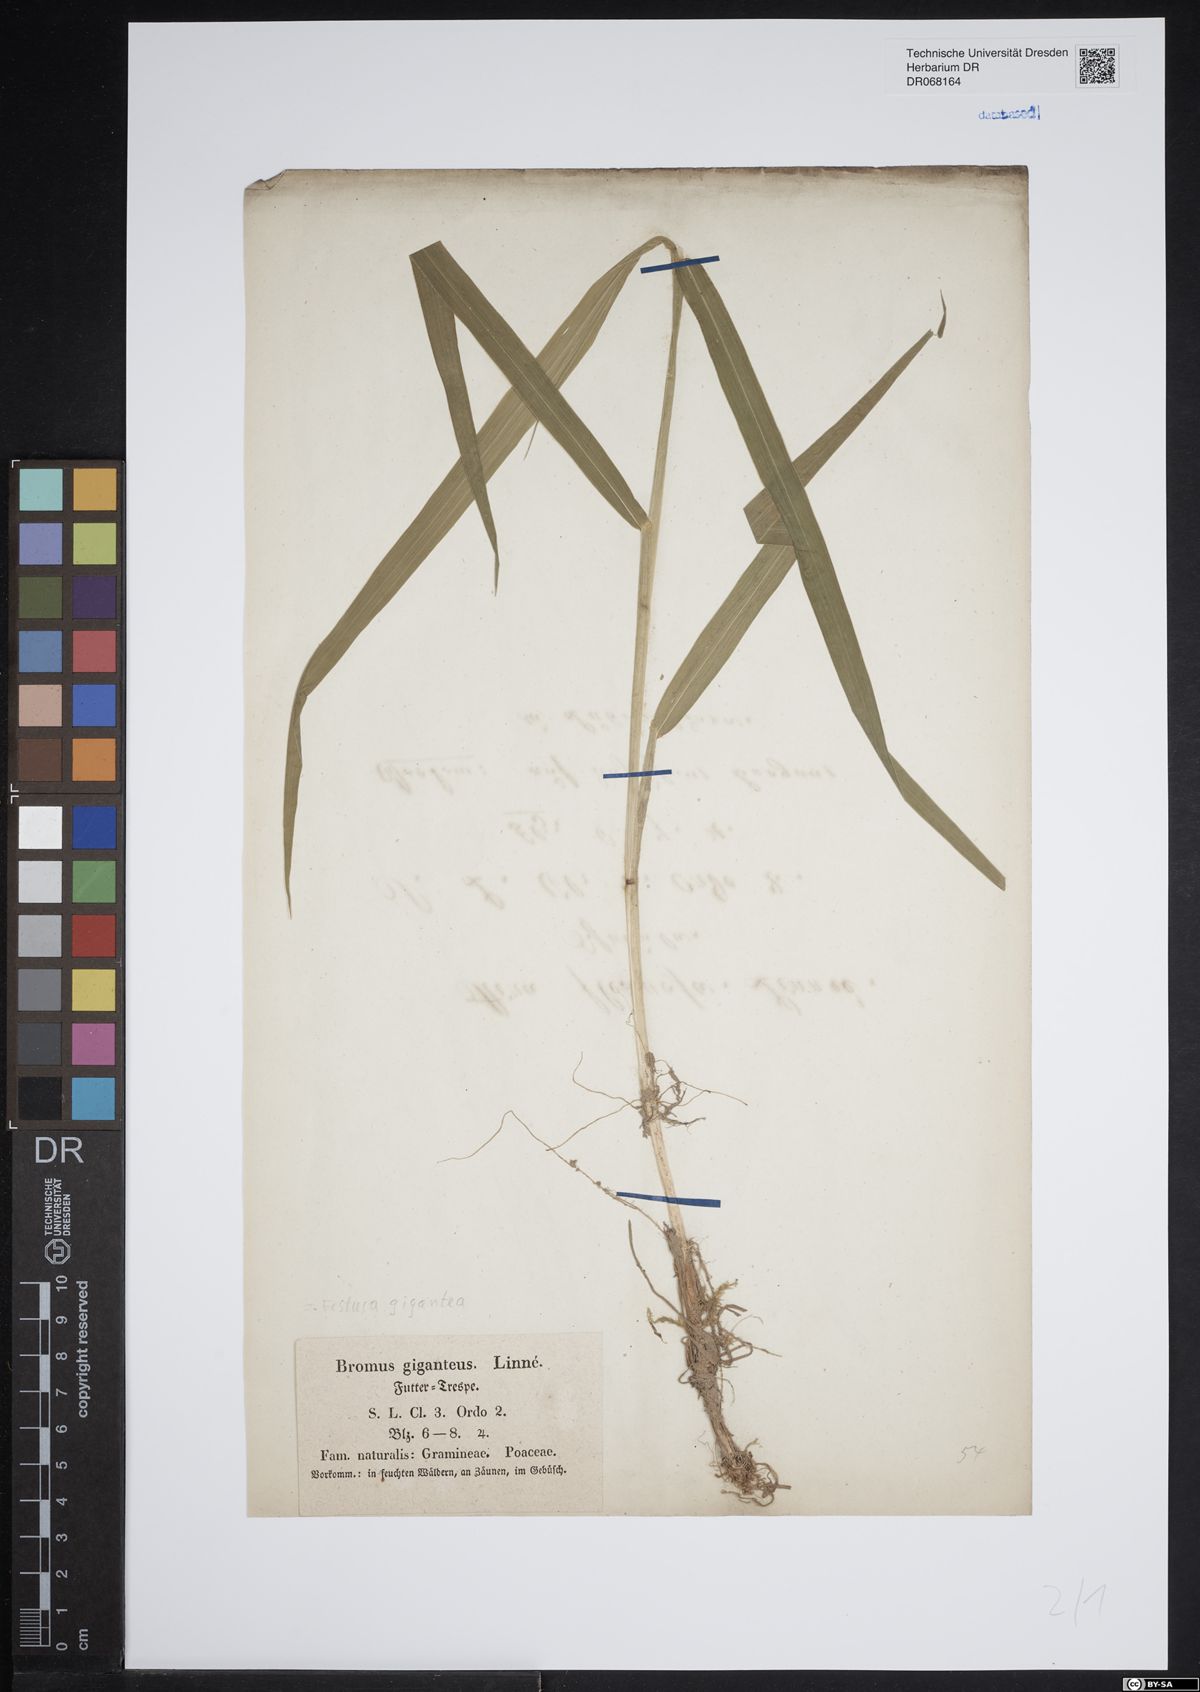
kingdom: Plantae
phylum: Tracheophyta
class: Liliopsida
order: Poales
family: Poaceae
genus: Lolium
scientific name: Lolium giganteum
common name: Giant fescue
